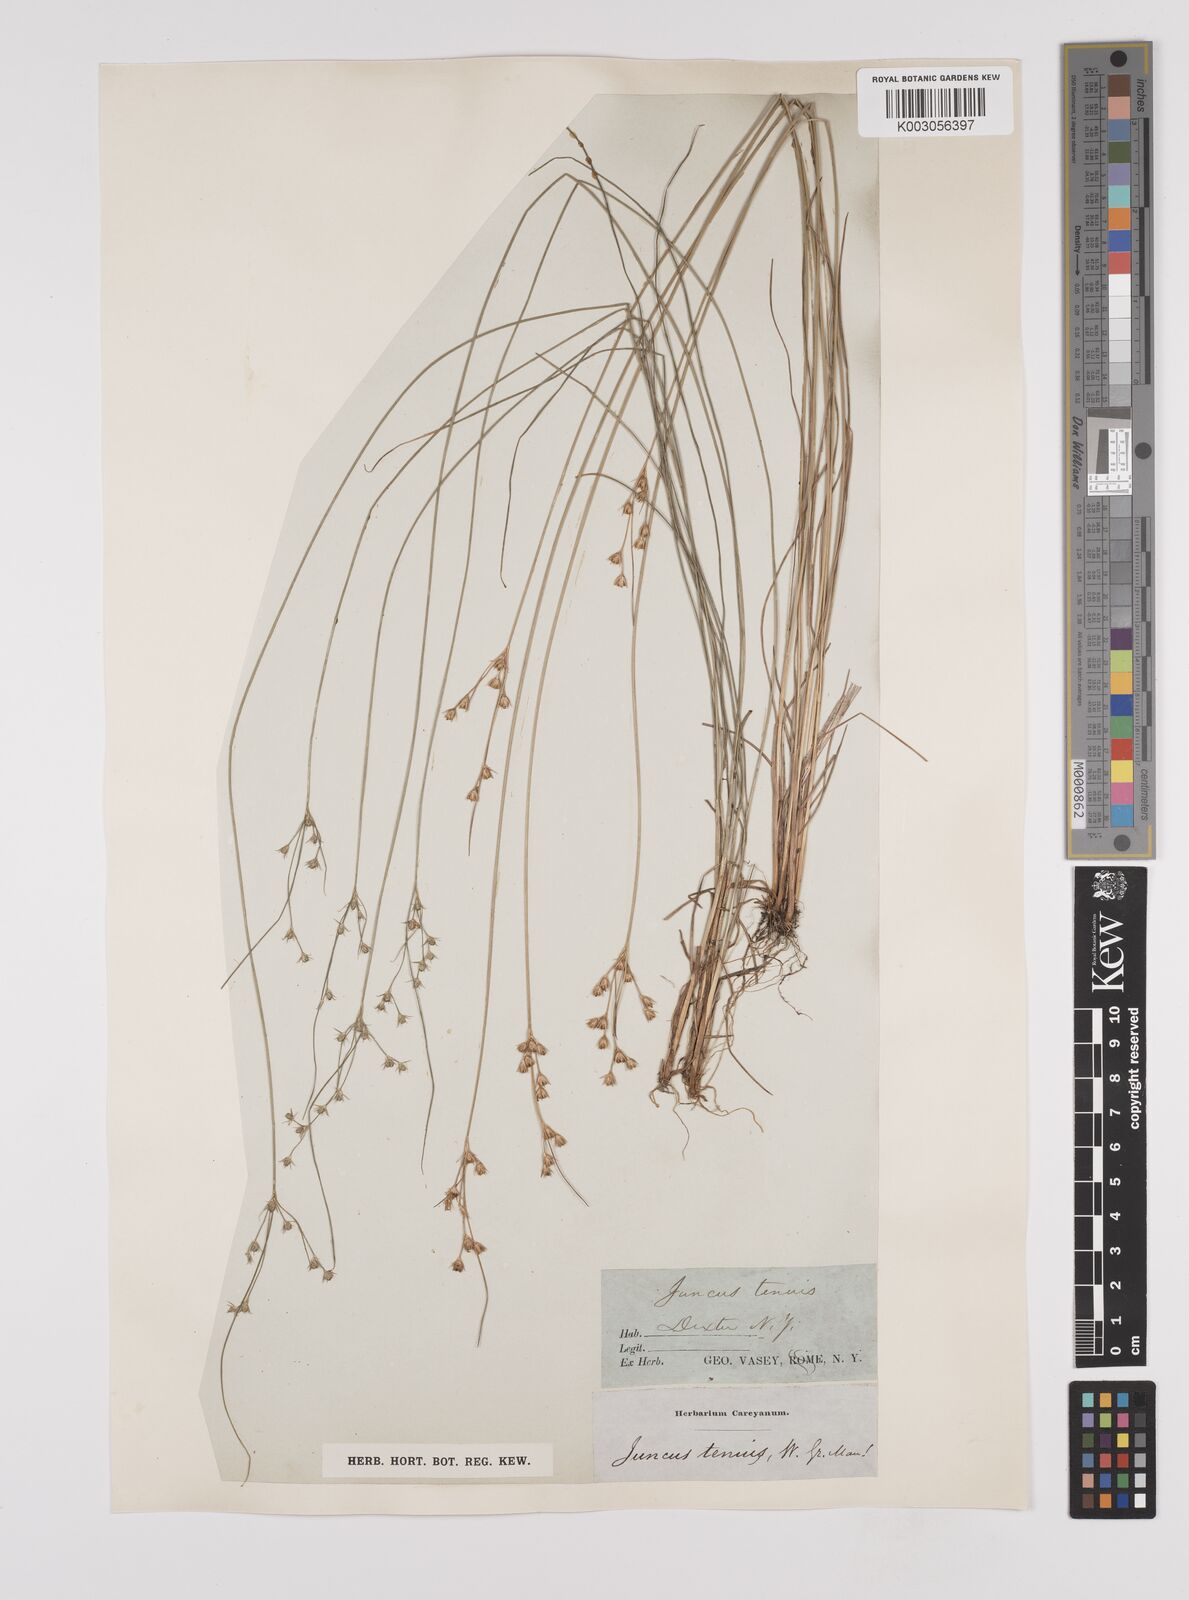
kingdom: Plantae
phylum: Tracheophyta
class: Liliopsida
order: Poales
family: Juncaceae
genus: Juncus
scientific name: Juncus tenuis
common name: Slender rush
